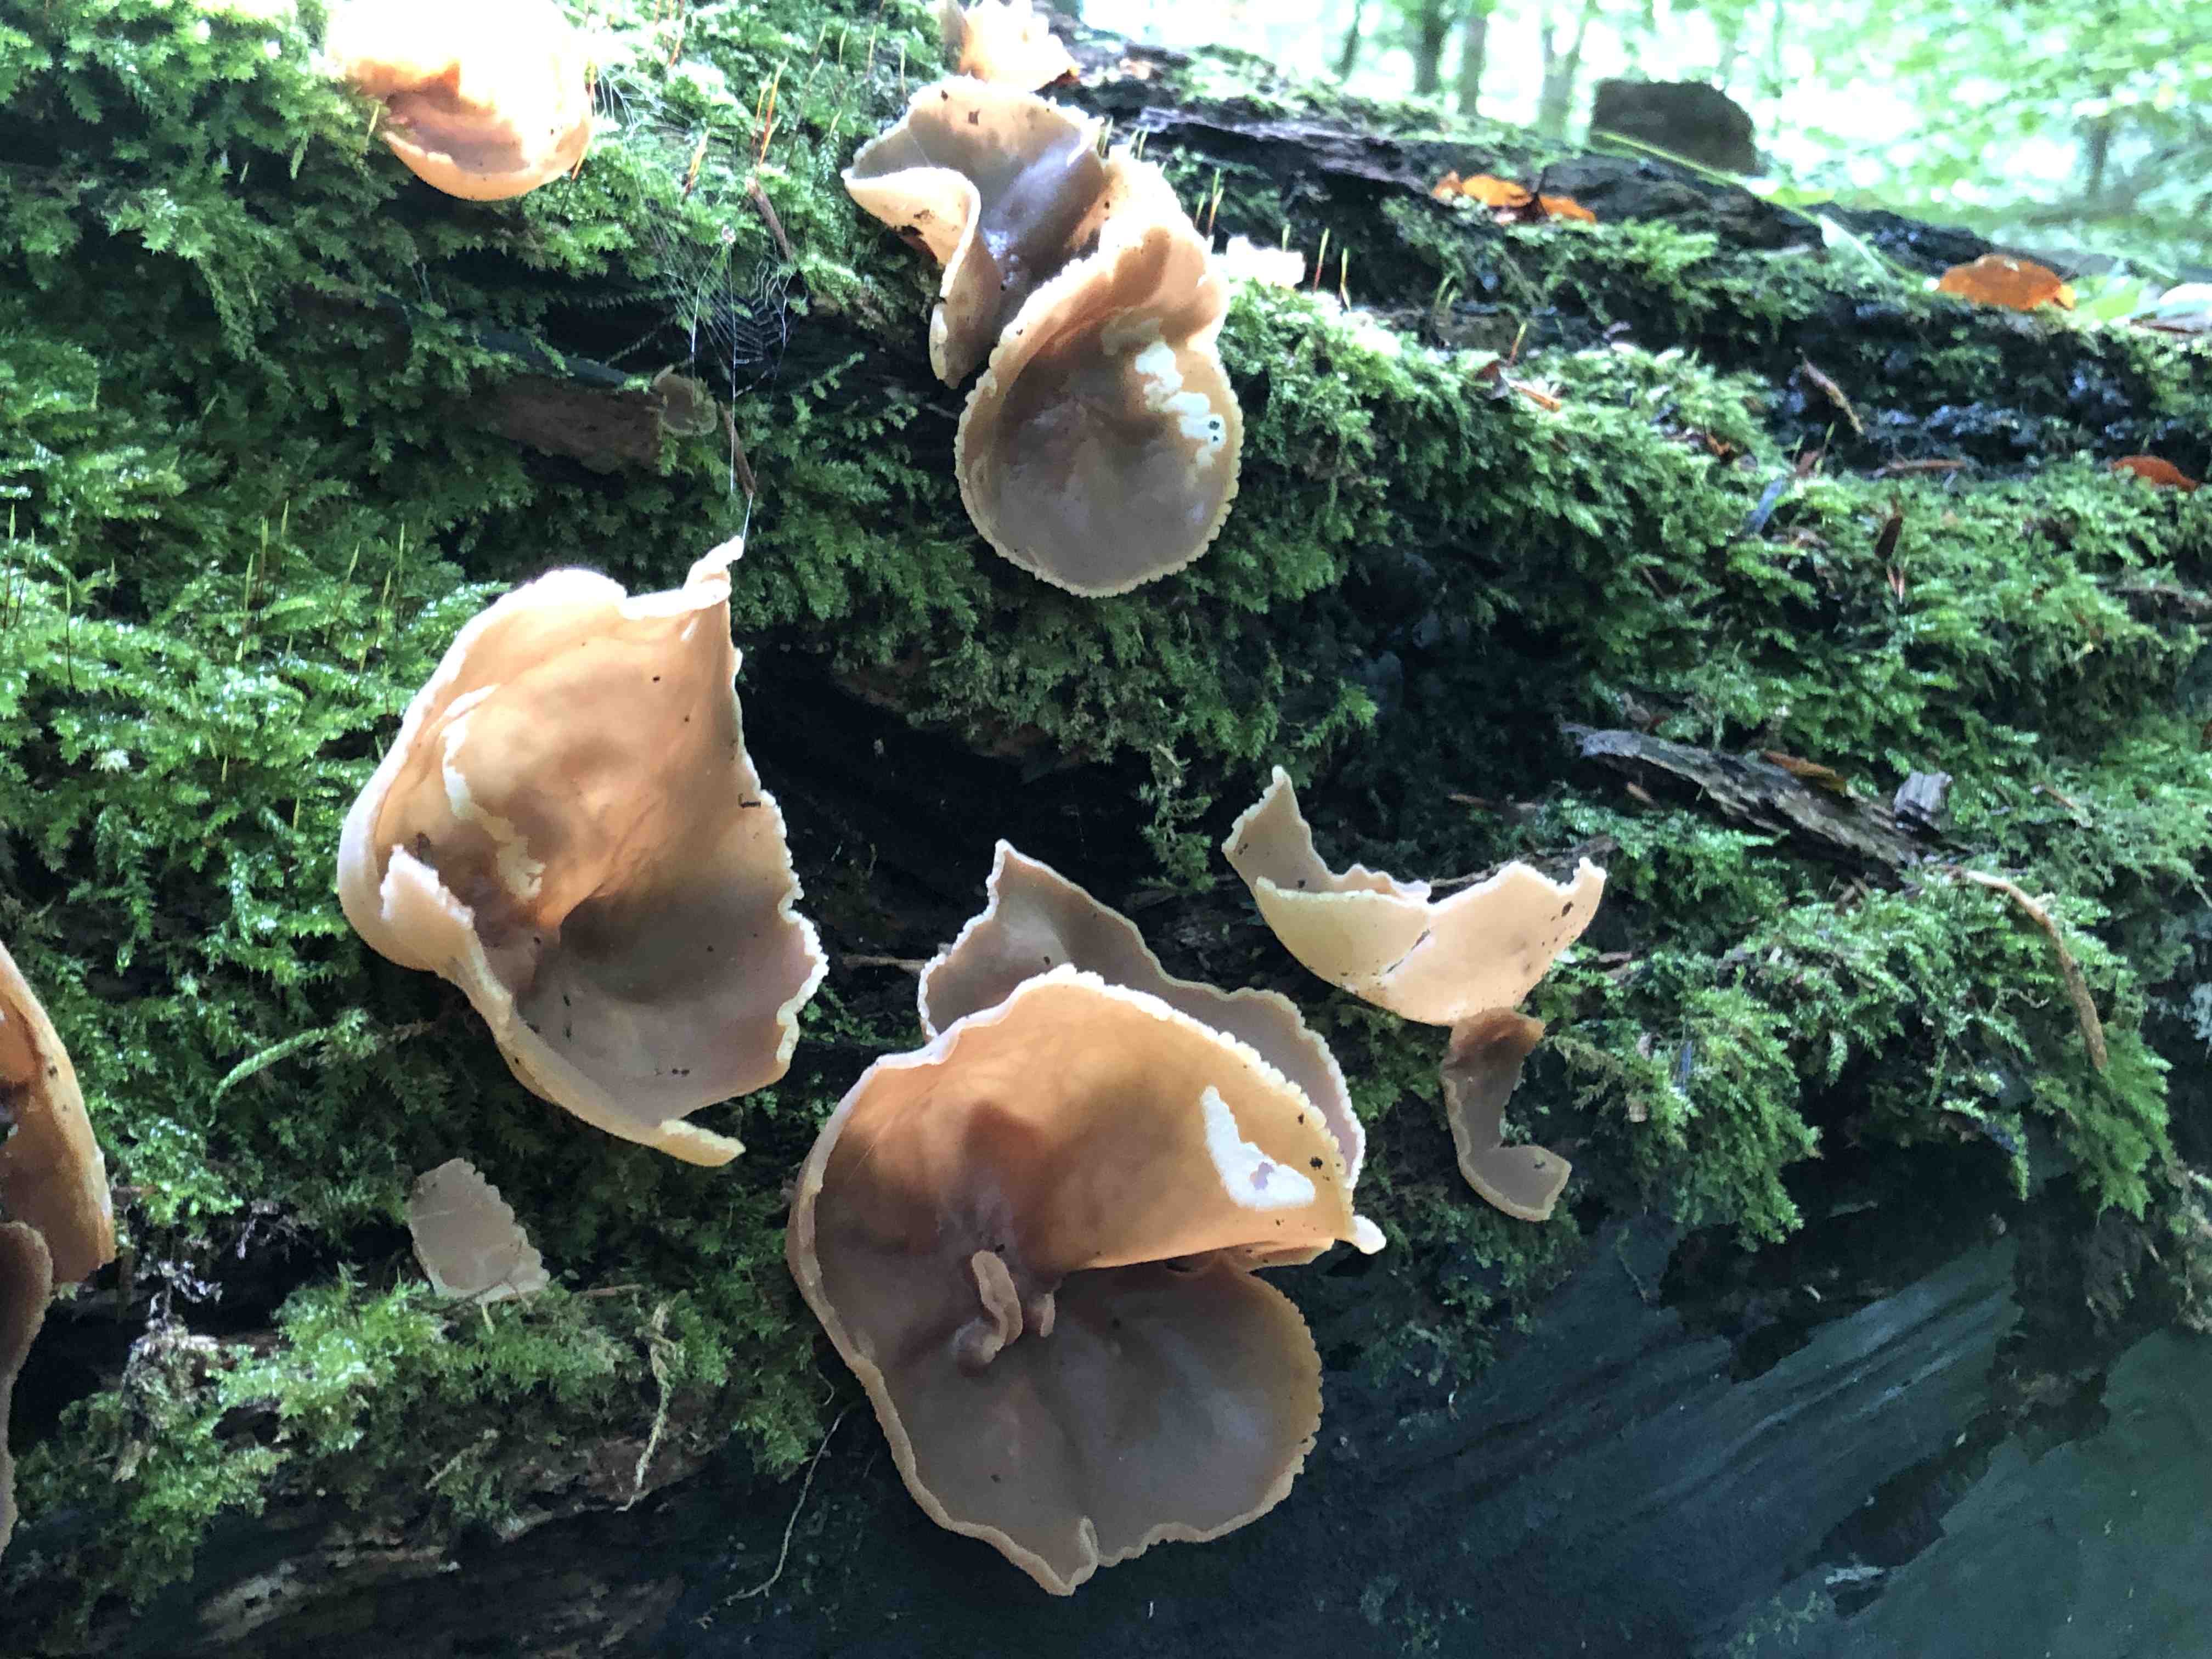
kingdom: Fungi
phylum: Ascomycota
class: Pezizomycetes
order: Pezizales
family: Pezizaceae
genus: Peziza
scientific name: Peziza varia
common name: Ved-bægersvamp
